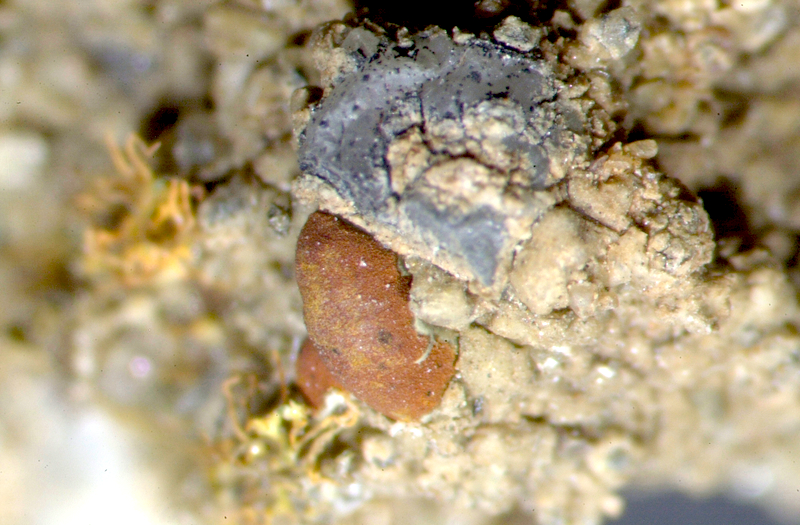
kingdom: Fungi
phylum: Ascomycota
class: Lecanoromycetes
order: Teloschistales
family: Teloschistaceae
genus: Caloplaca
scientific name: Caloplaca
